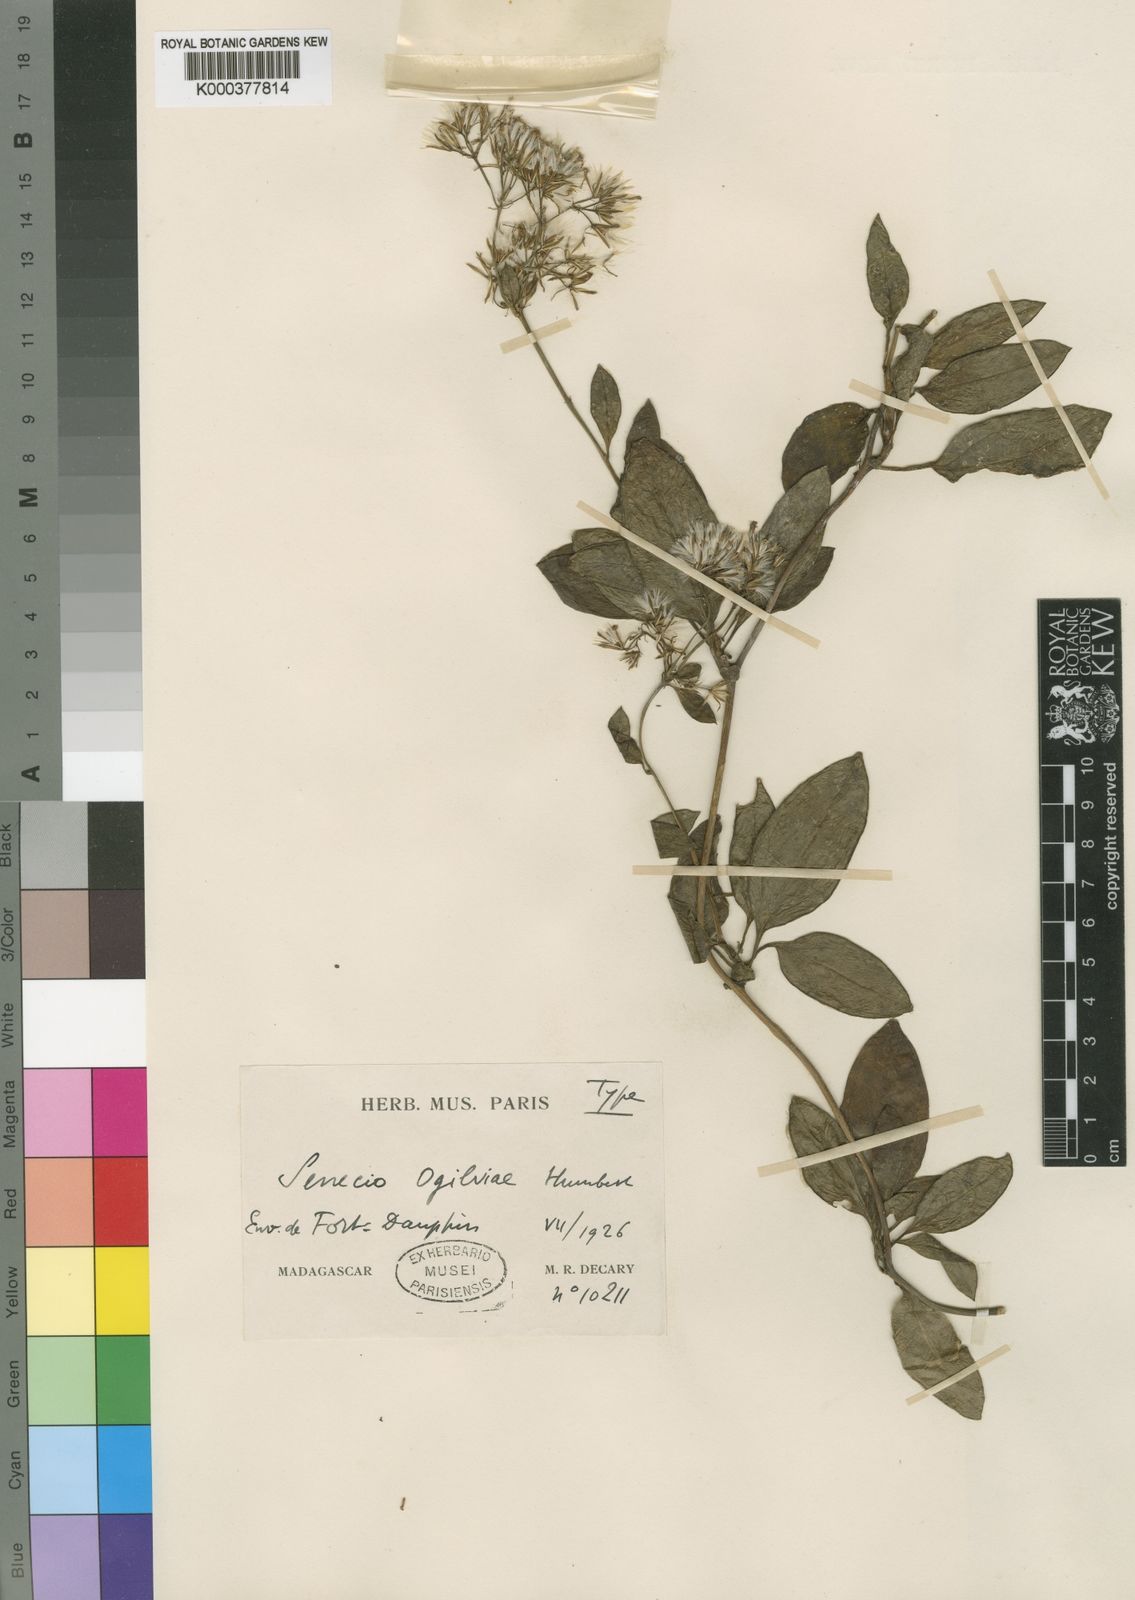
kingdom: Plantae
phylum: Tracheophyta
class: Magnoliopsida
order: Asterales
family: Asteraceae
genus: Senecio
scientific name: Senecio acetosifolius
